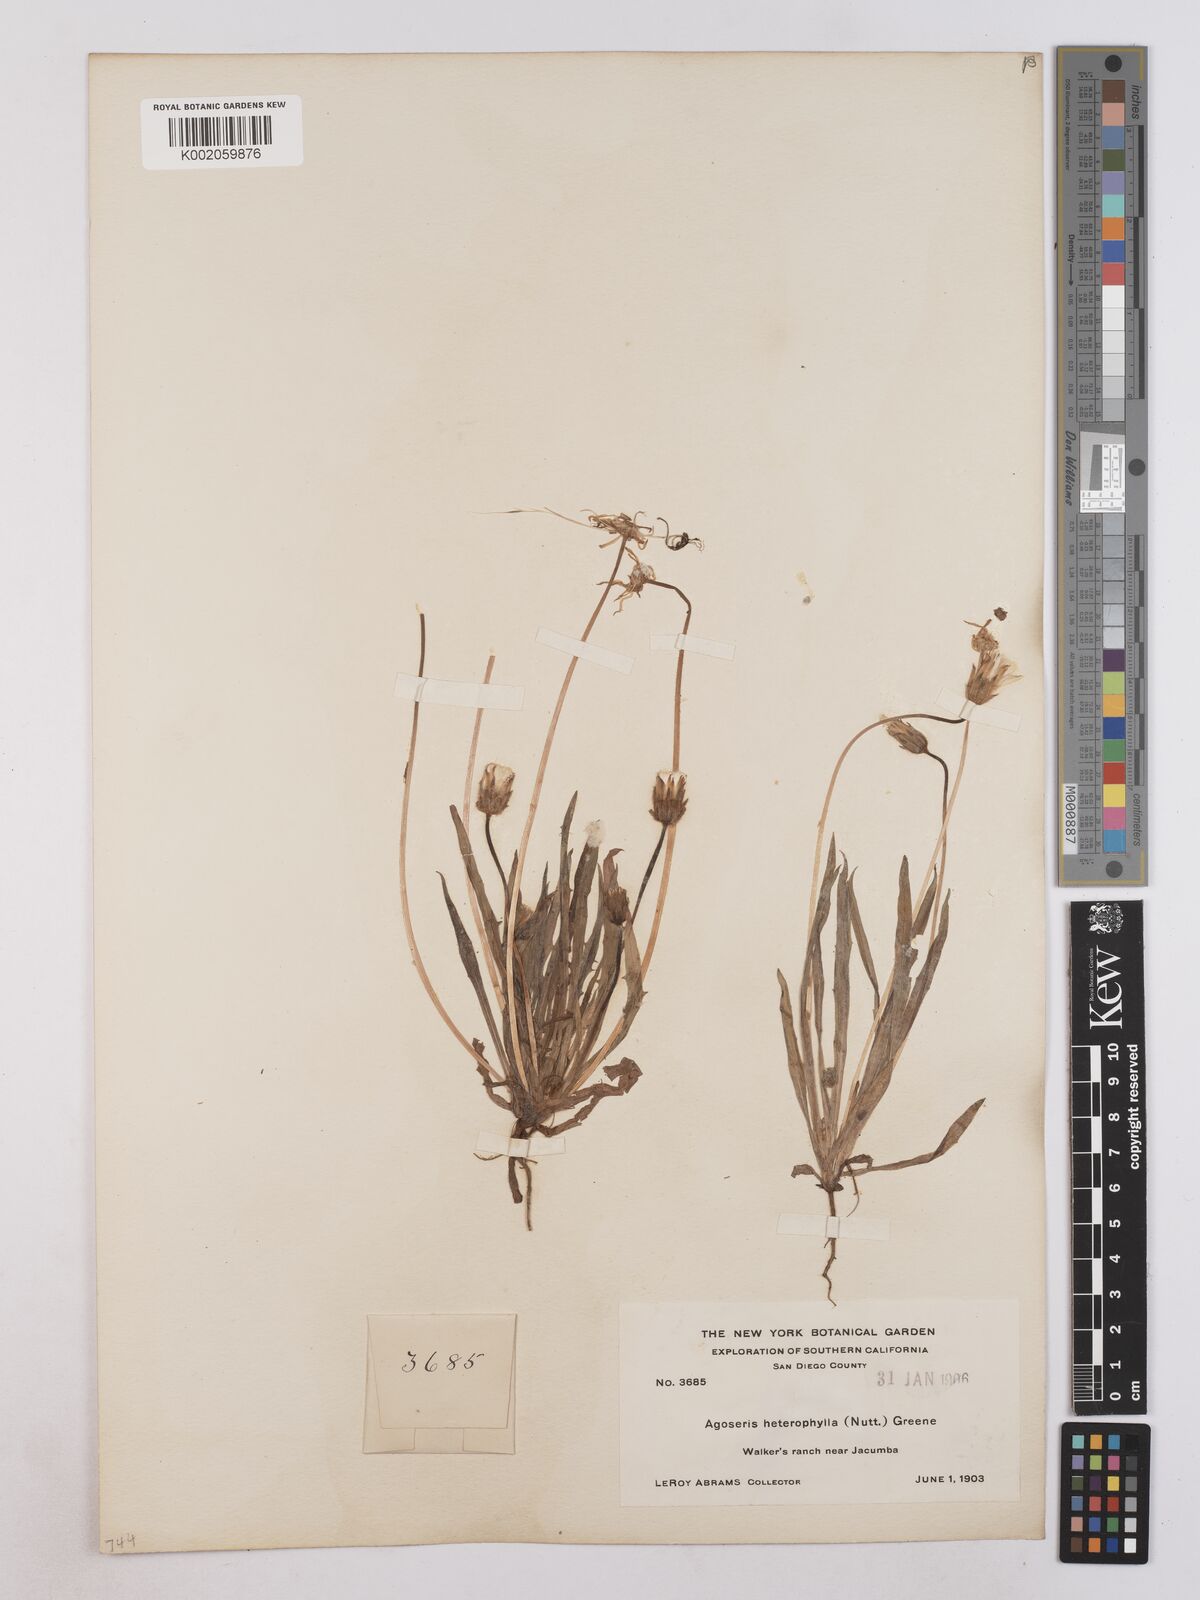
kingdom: Plantae
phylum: Tracheophyta
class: Magnoliopsida
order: Asterales
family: Asteraceae
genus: Agoseris
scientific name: Agoseris heterophylla
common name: Annual agoseris
